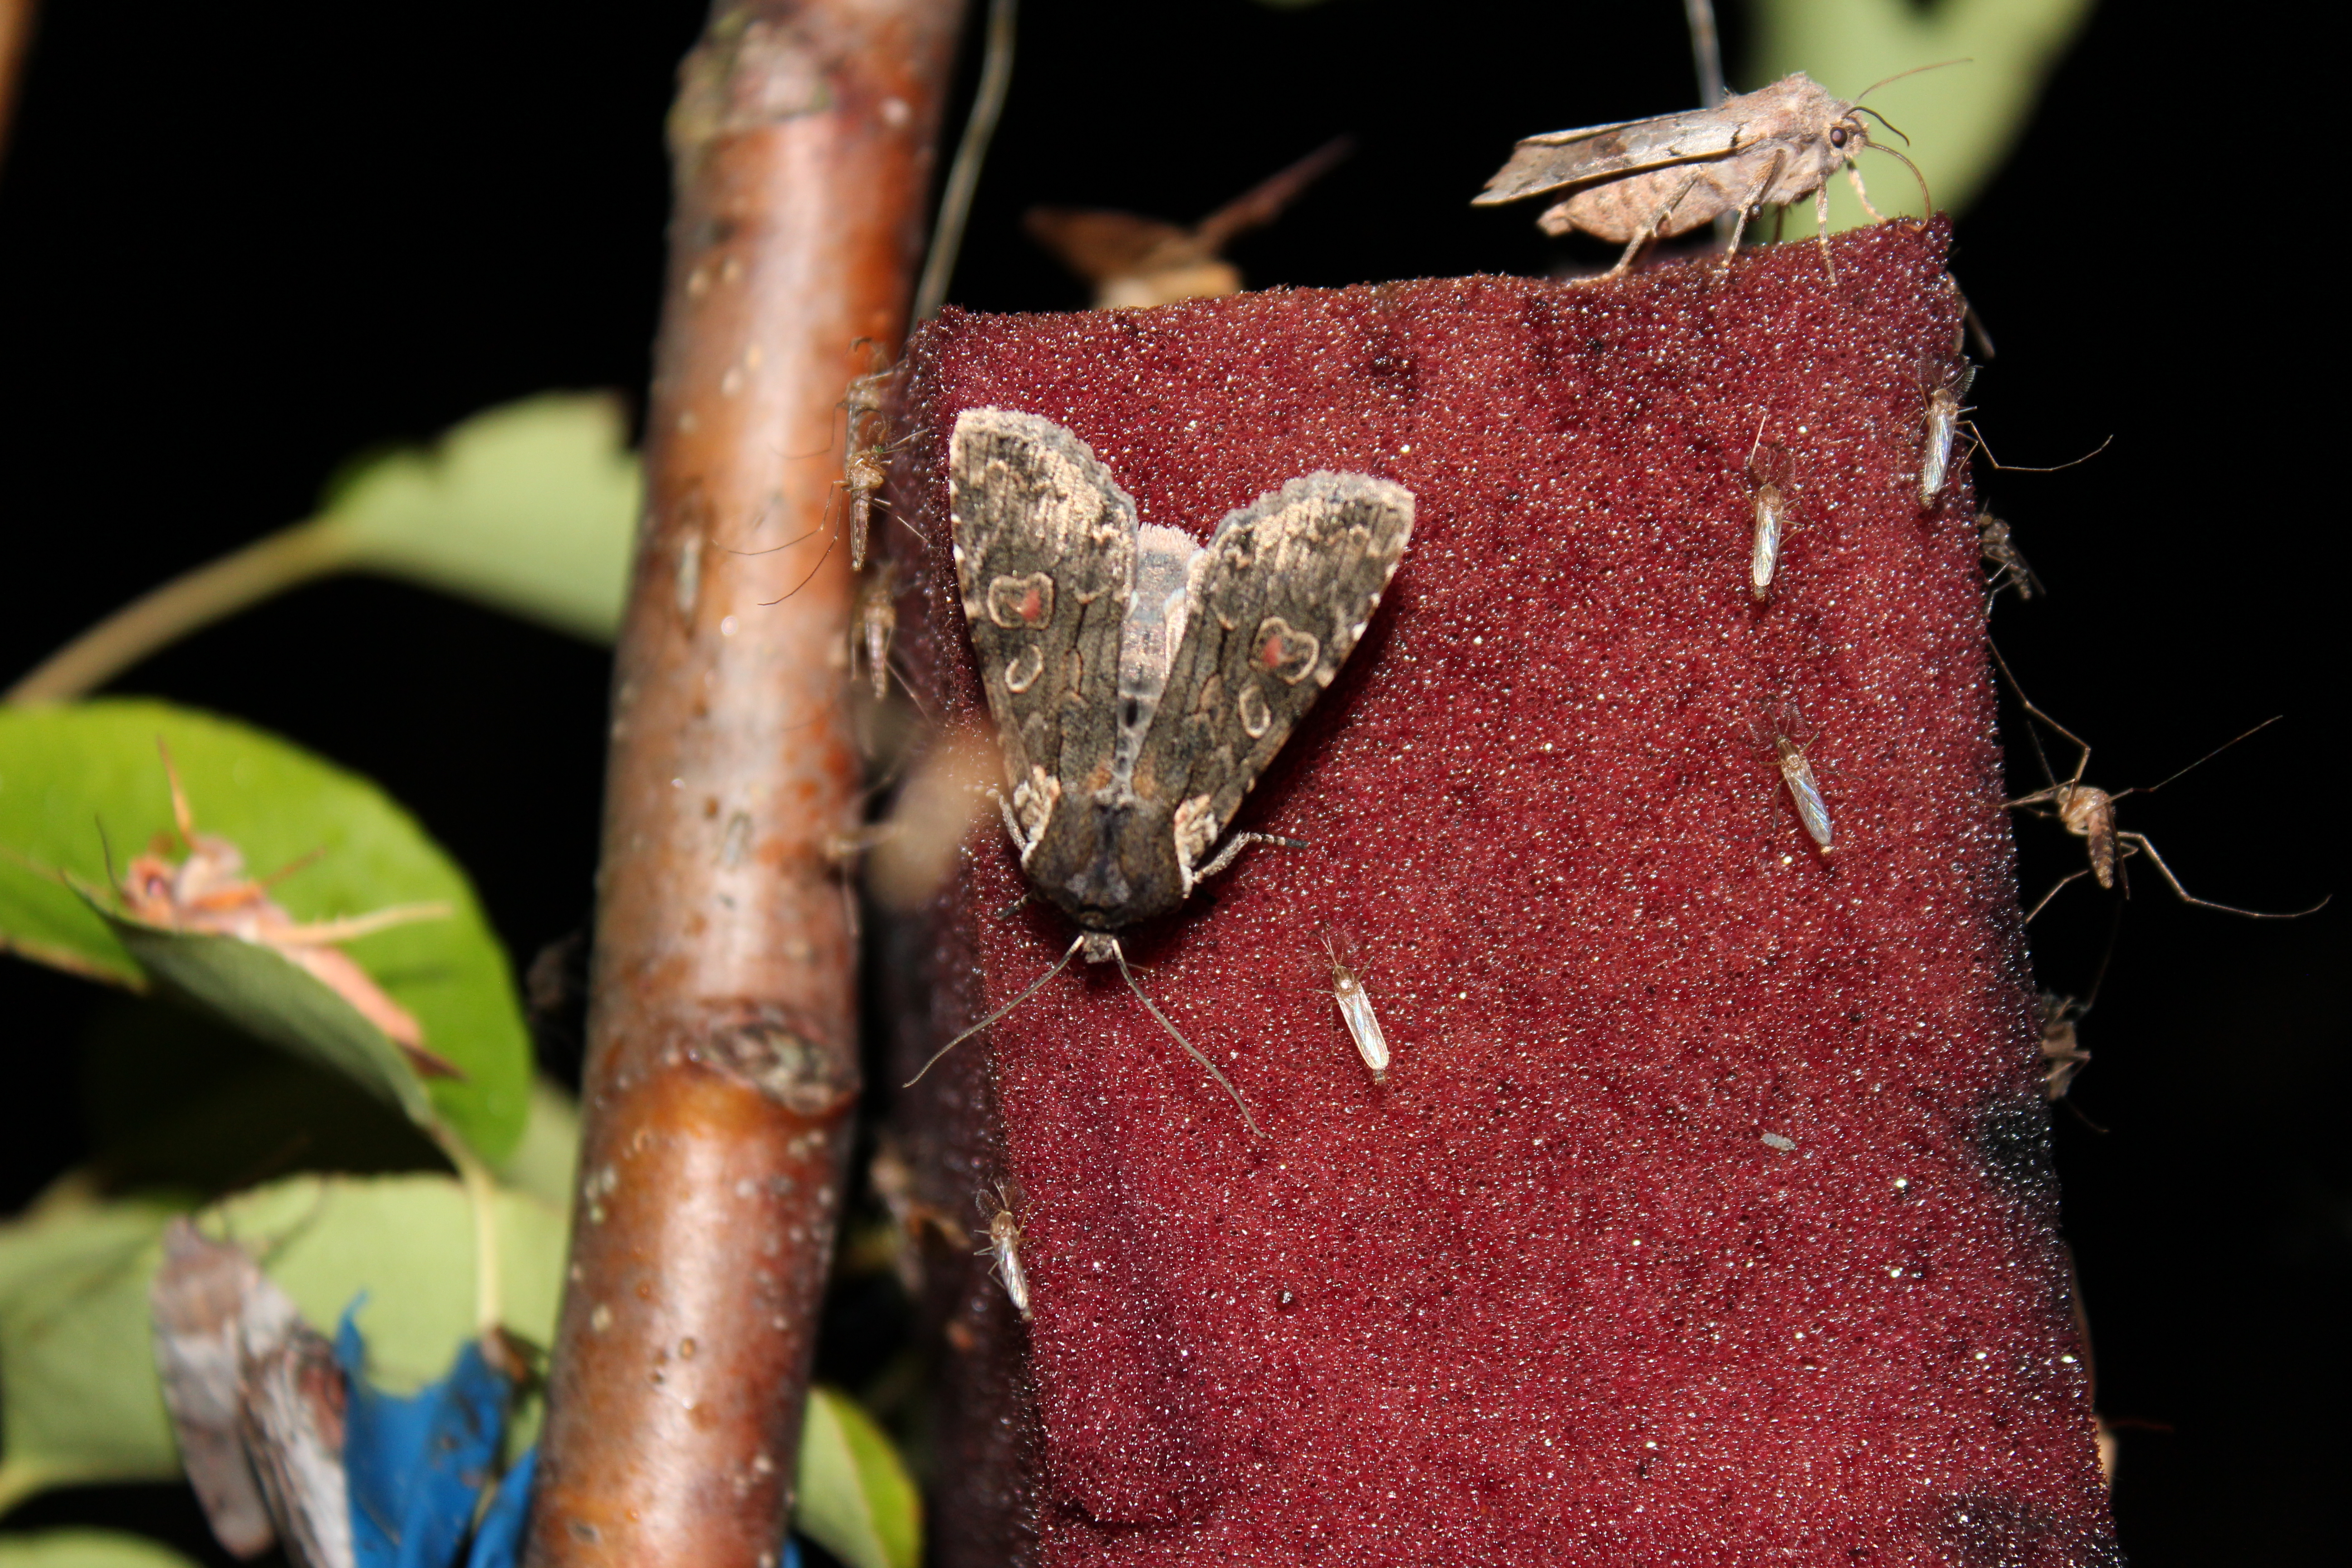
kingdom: Animalia
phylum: Arthropoda
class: Insecta
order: Lepidoptera
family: Noctuidae
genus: Lithophane
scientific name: Lithophane consocia
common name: Softly's shoulder-knot
